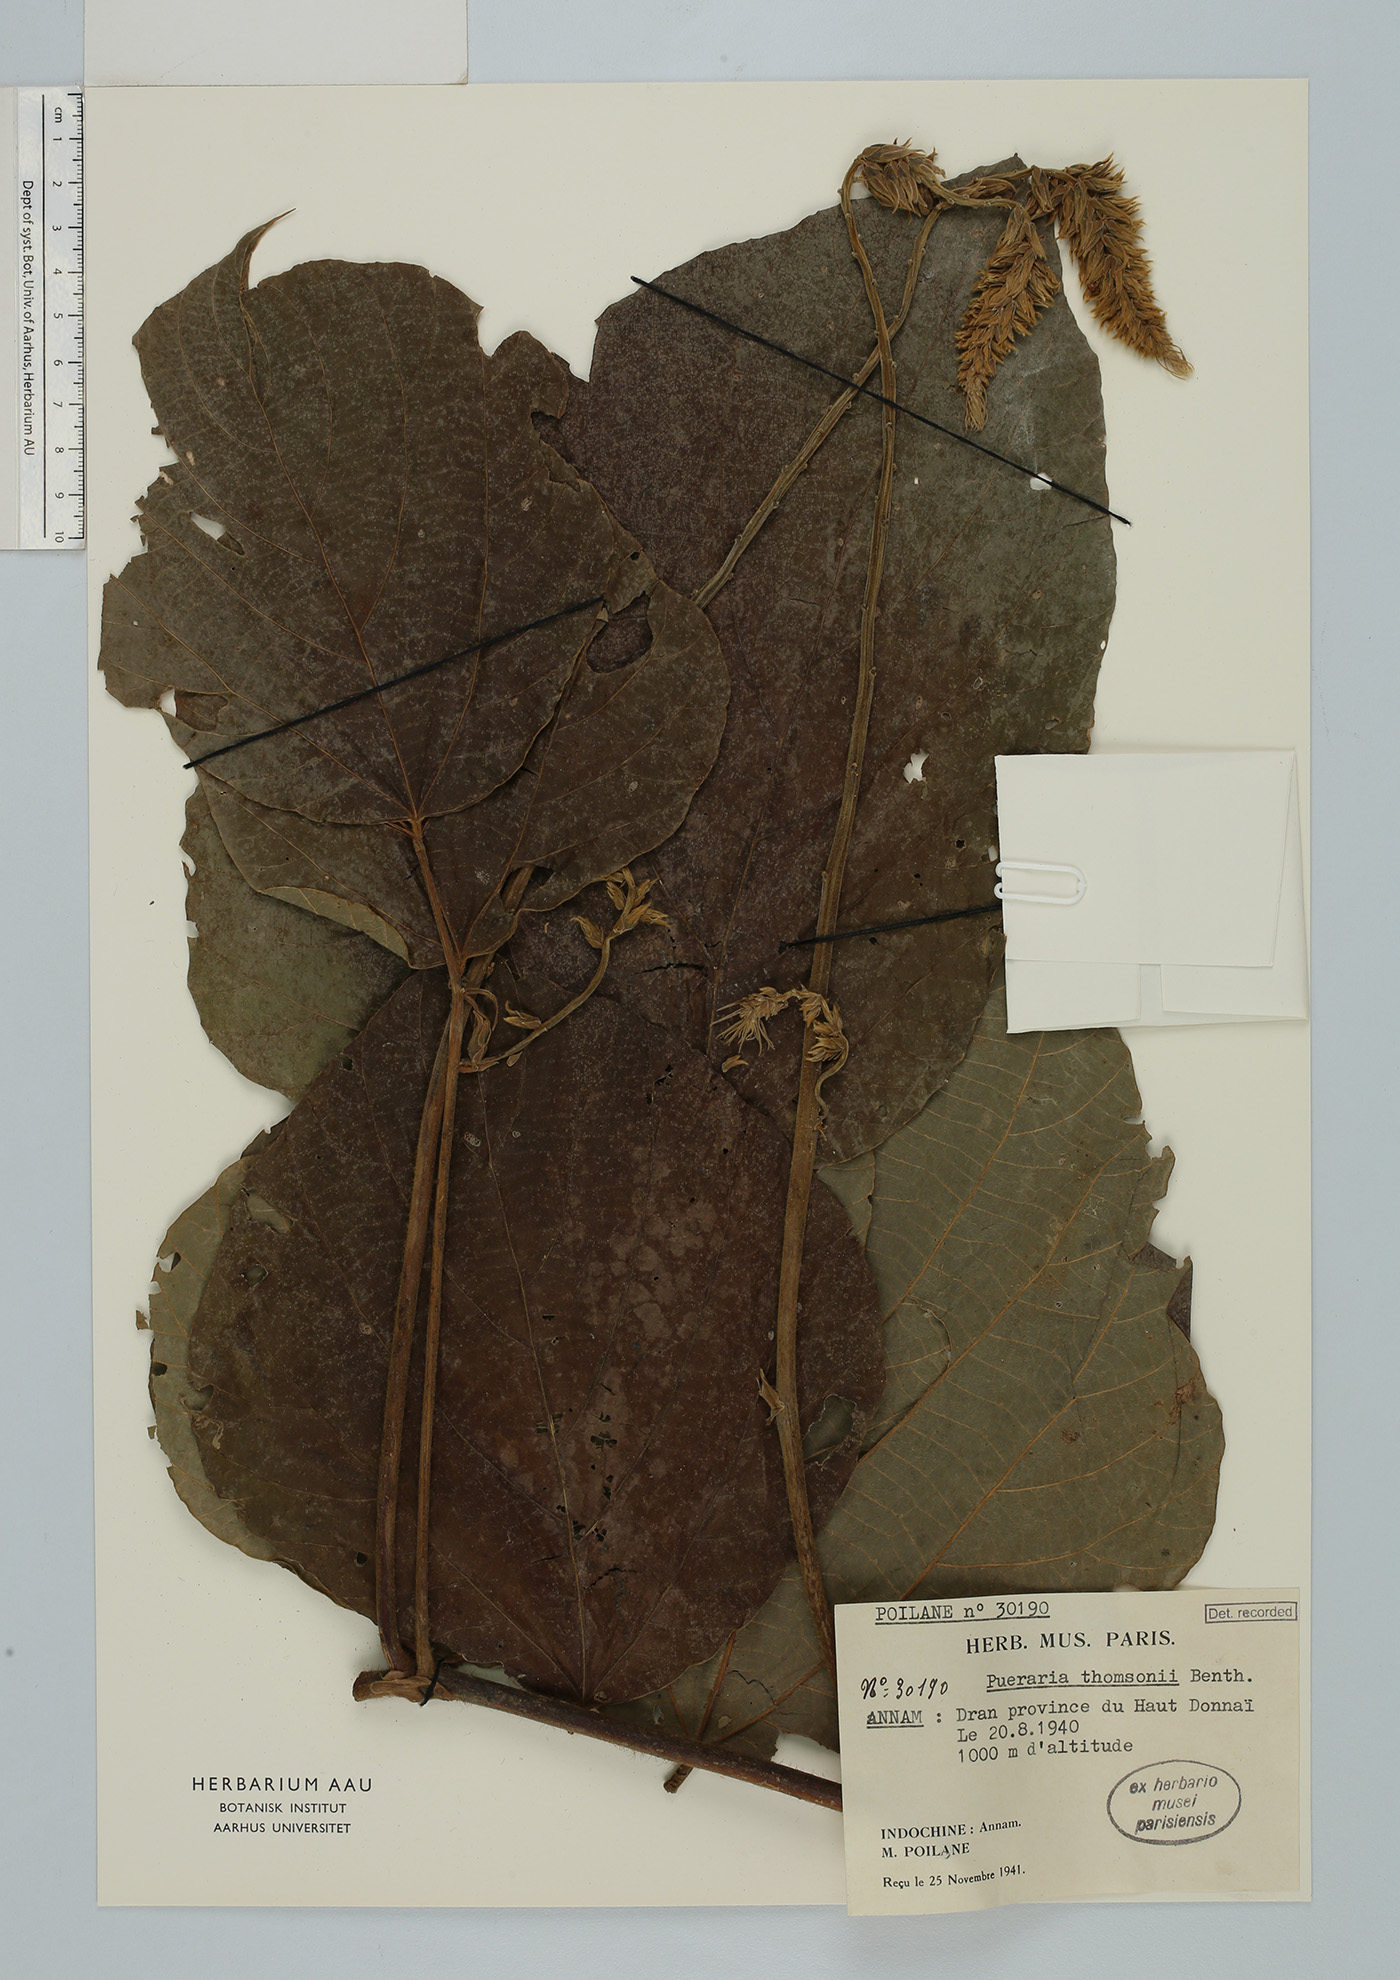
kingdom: Plantae
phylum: Tracheophyta
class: Magnoliopsida
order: Fabales
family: Fabaceae
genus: Pueraria
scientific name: Pueraria montana
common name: Kudzu
